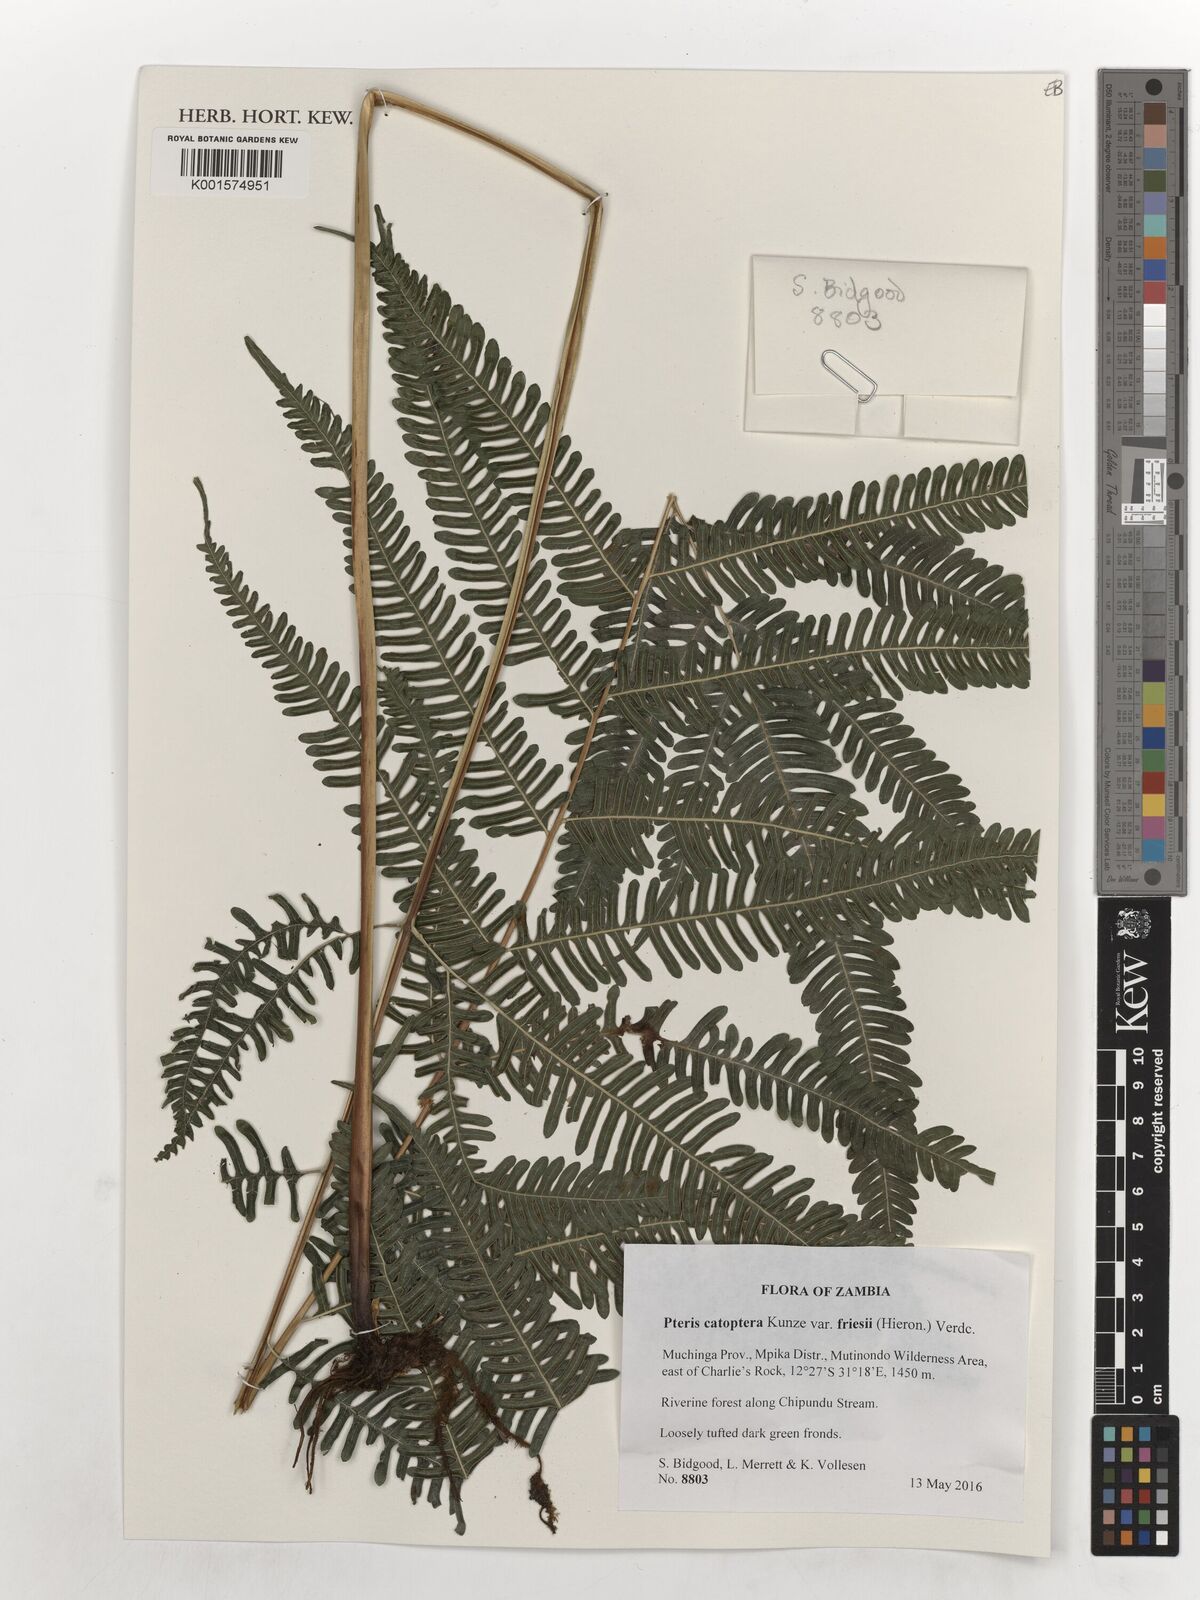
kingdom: Plantae
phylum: Tracheophyta
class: Polypodiopsida
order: Polypodiales
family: Pteridaceae
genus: Pteris
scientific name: Pteris friesii
